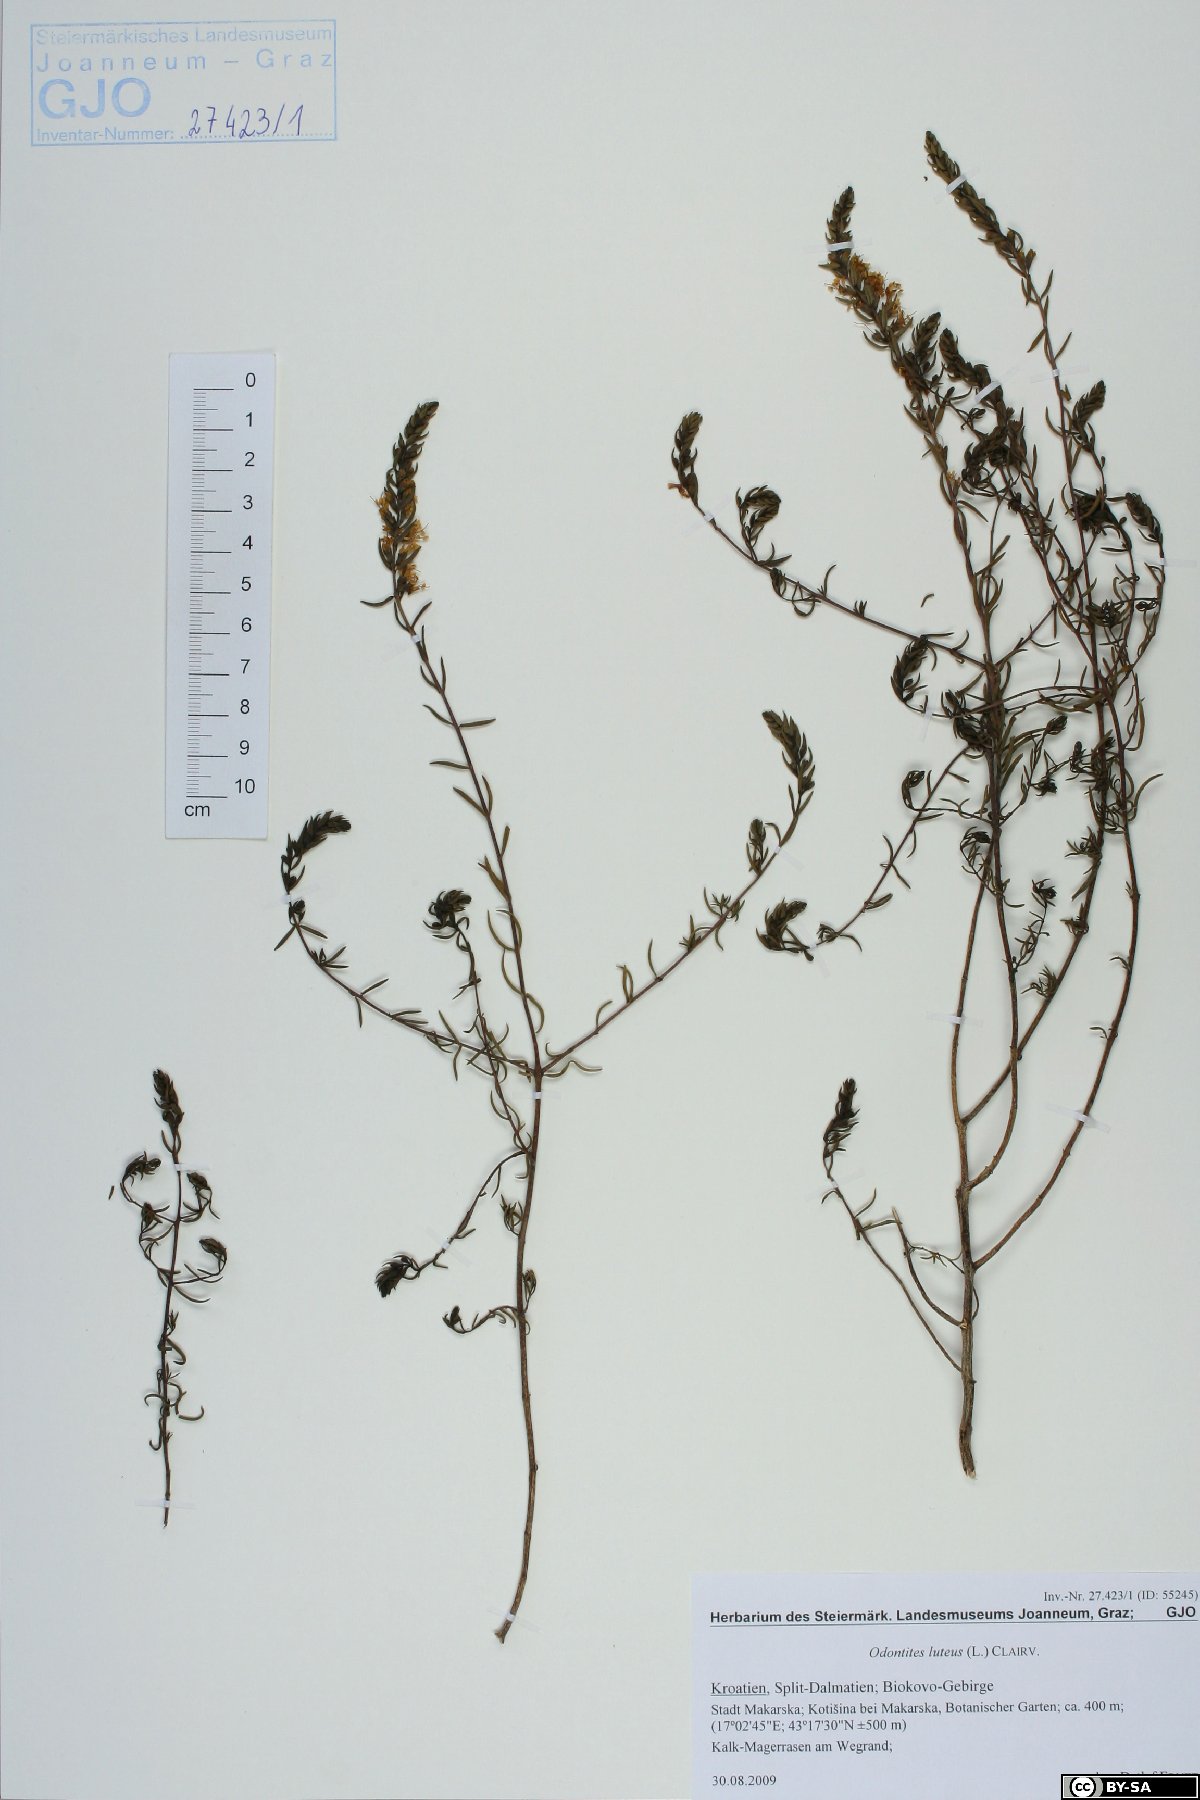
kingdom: Plantae
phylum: Tracheophyta
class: Magnoliopsida
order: Lamiales
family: Orobanchaceae
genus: Odontites
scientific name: Odontites luteus
